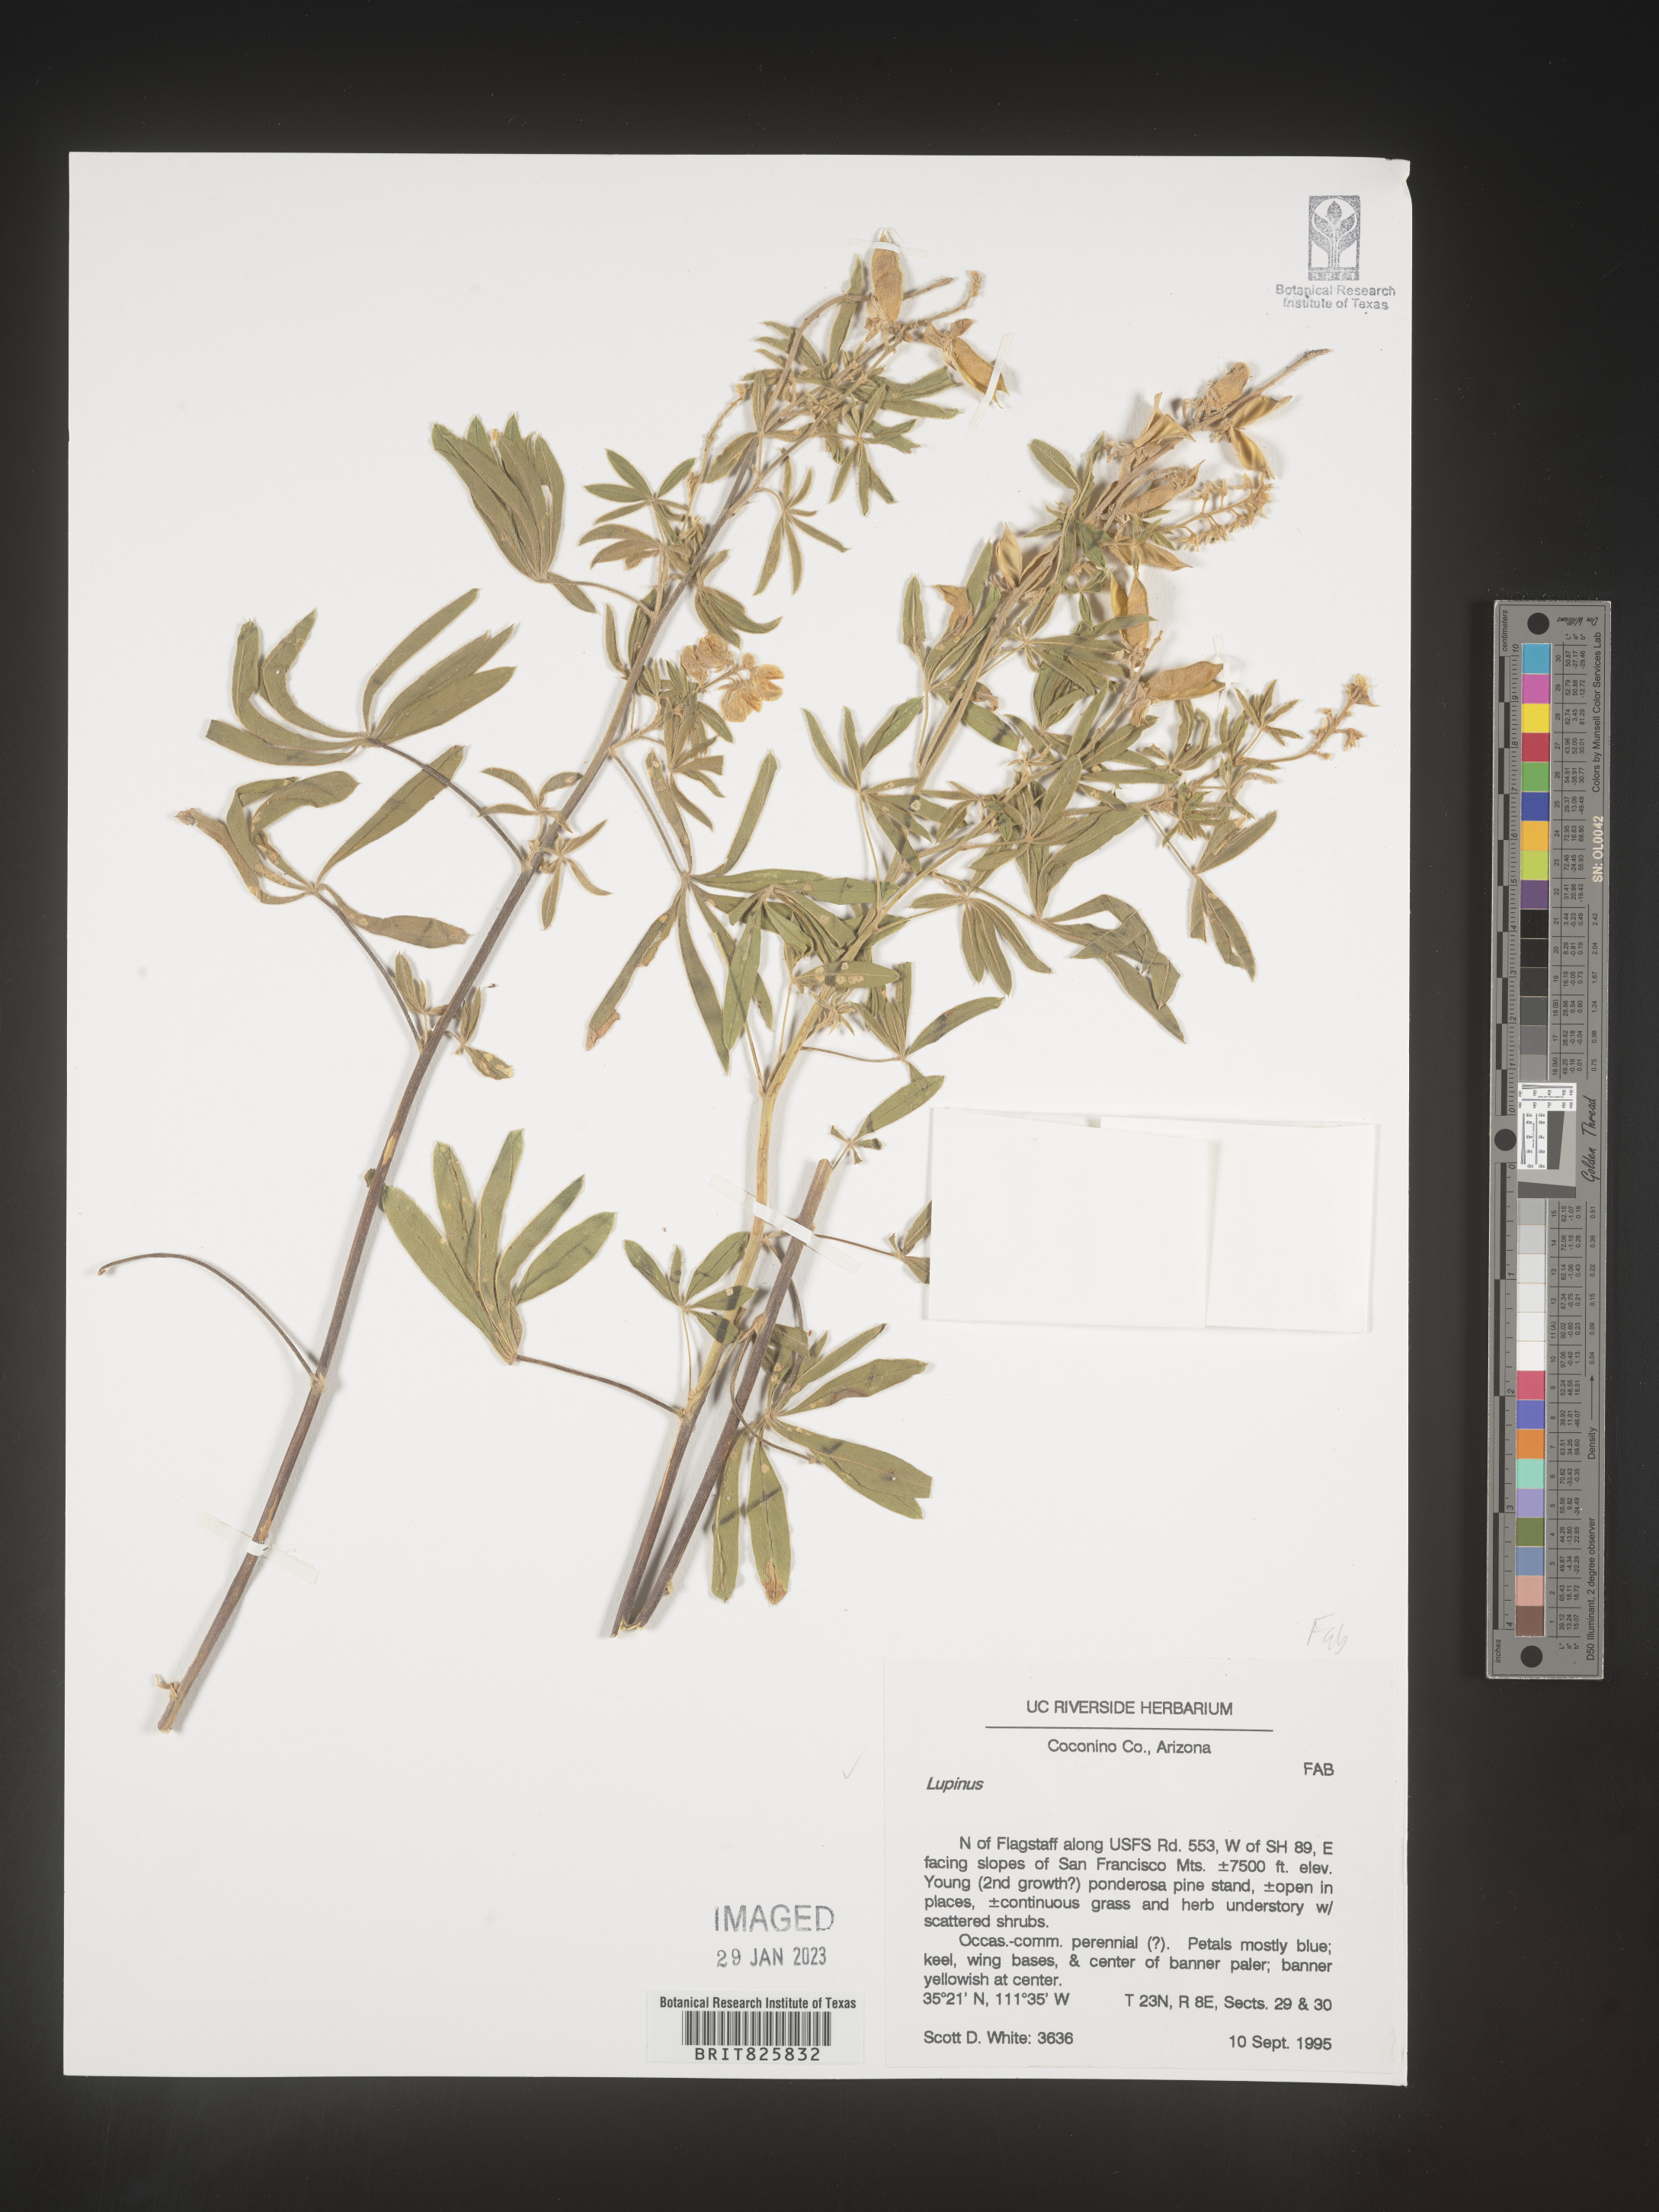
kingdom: Plantae
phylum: Tracheophyta
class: Magnoliopsida
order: Fabales
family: Fabaceae
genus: Lupinus
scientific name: Lupinus
